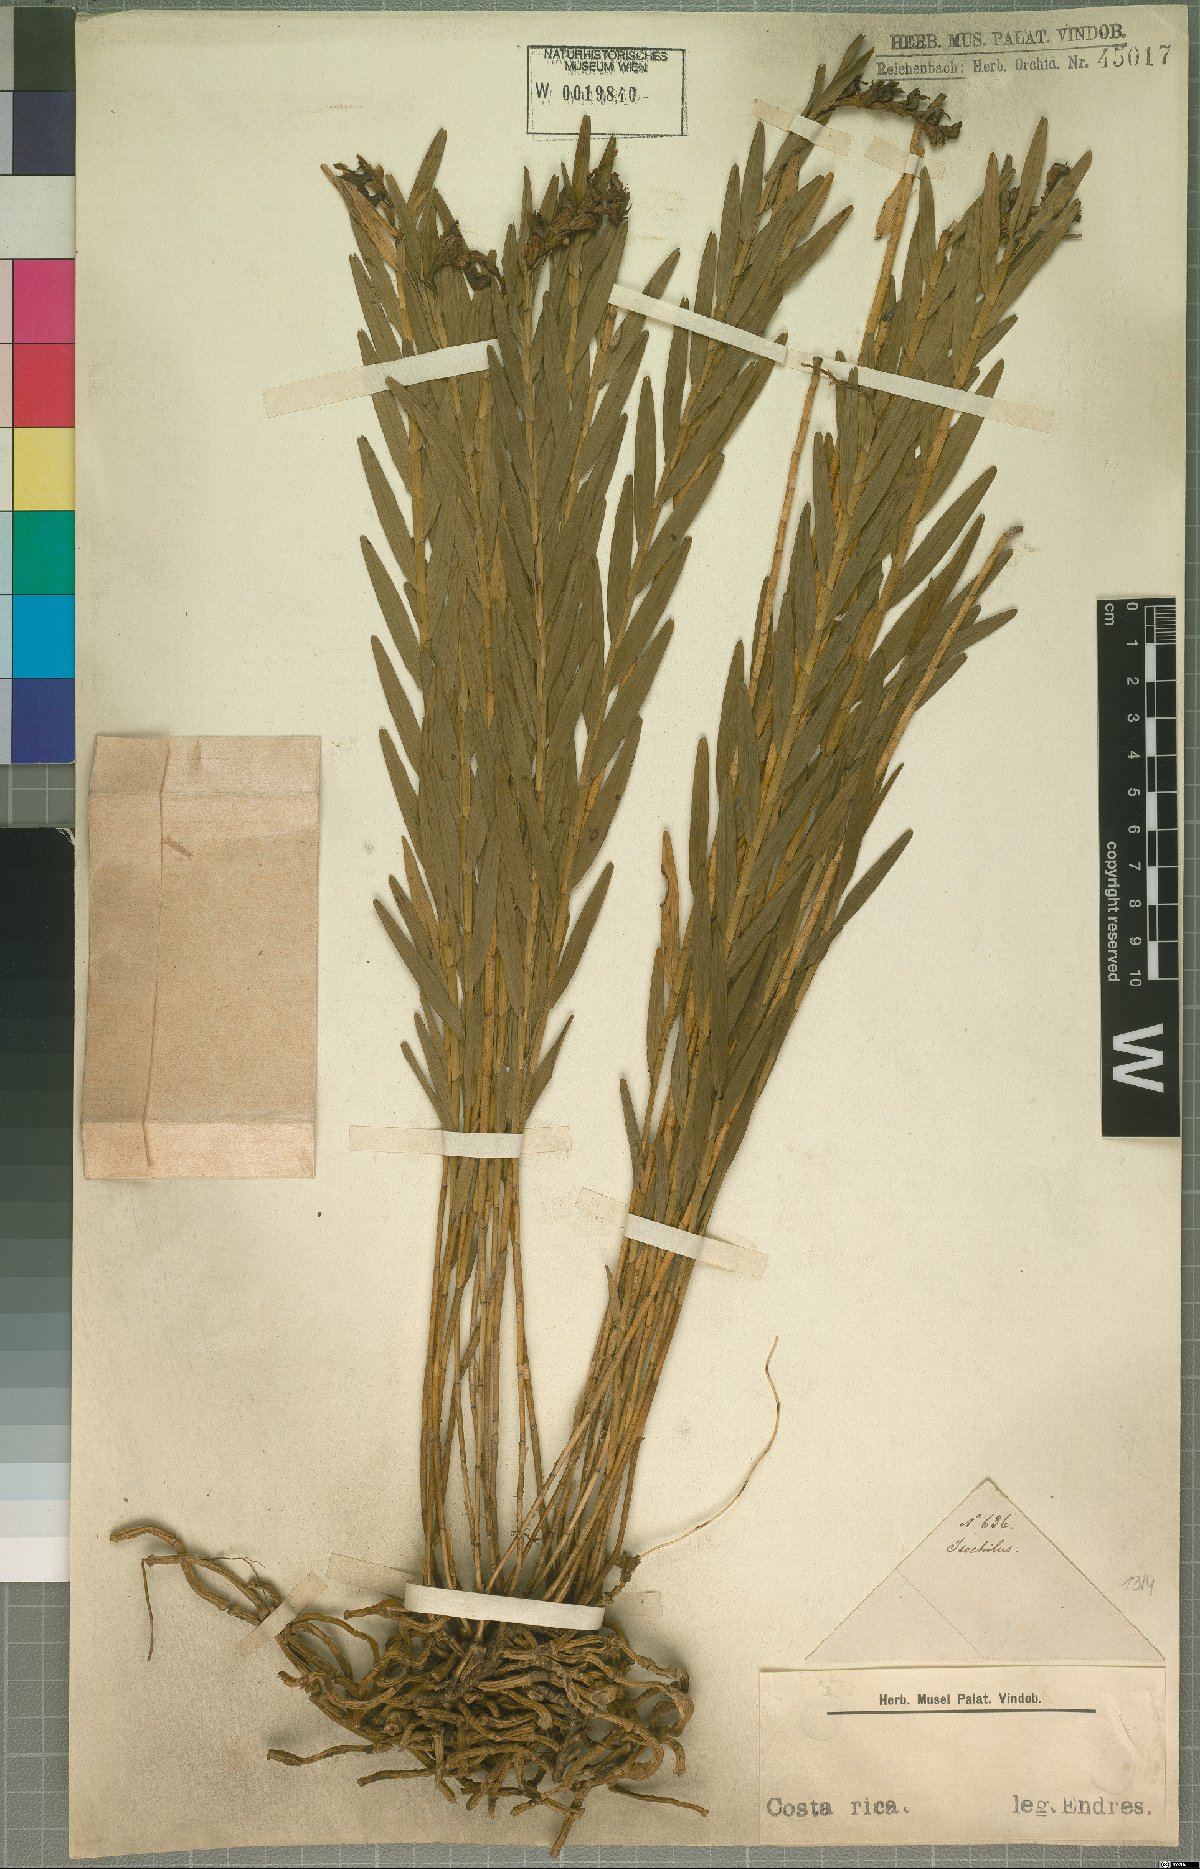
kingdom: Plantae
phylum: Tracheophyta
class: Liliopsida
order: Asparagales
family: Orchidaceae
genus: Isochilus
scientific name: Isochilus
